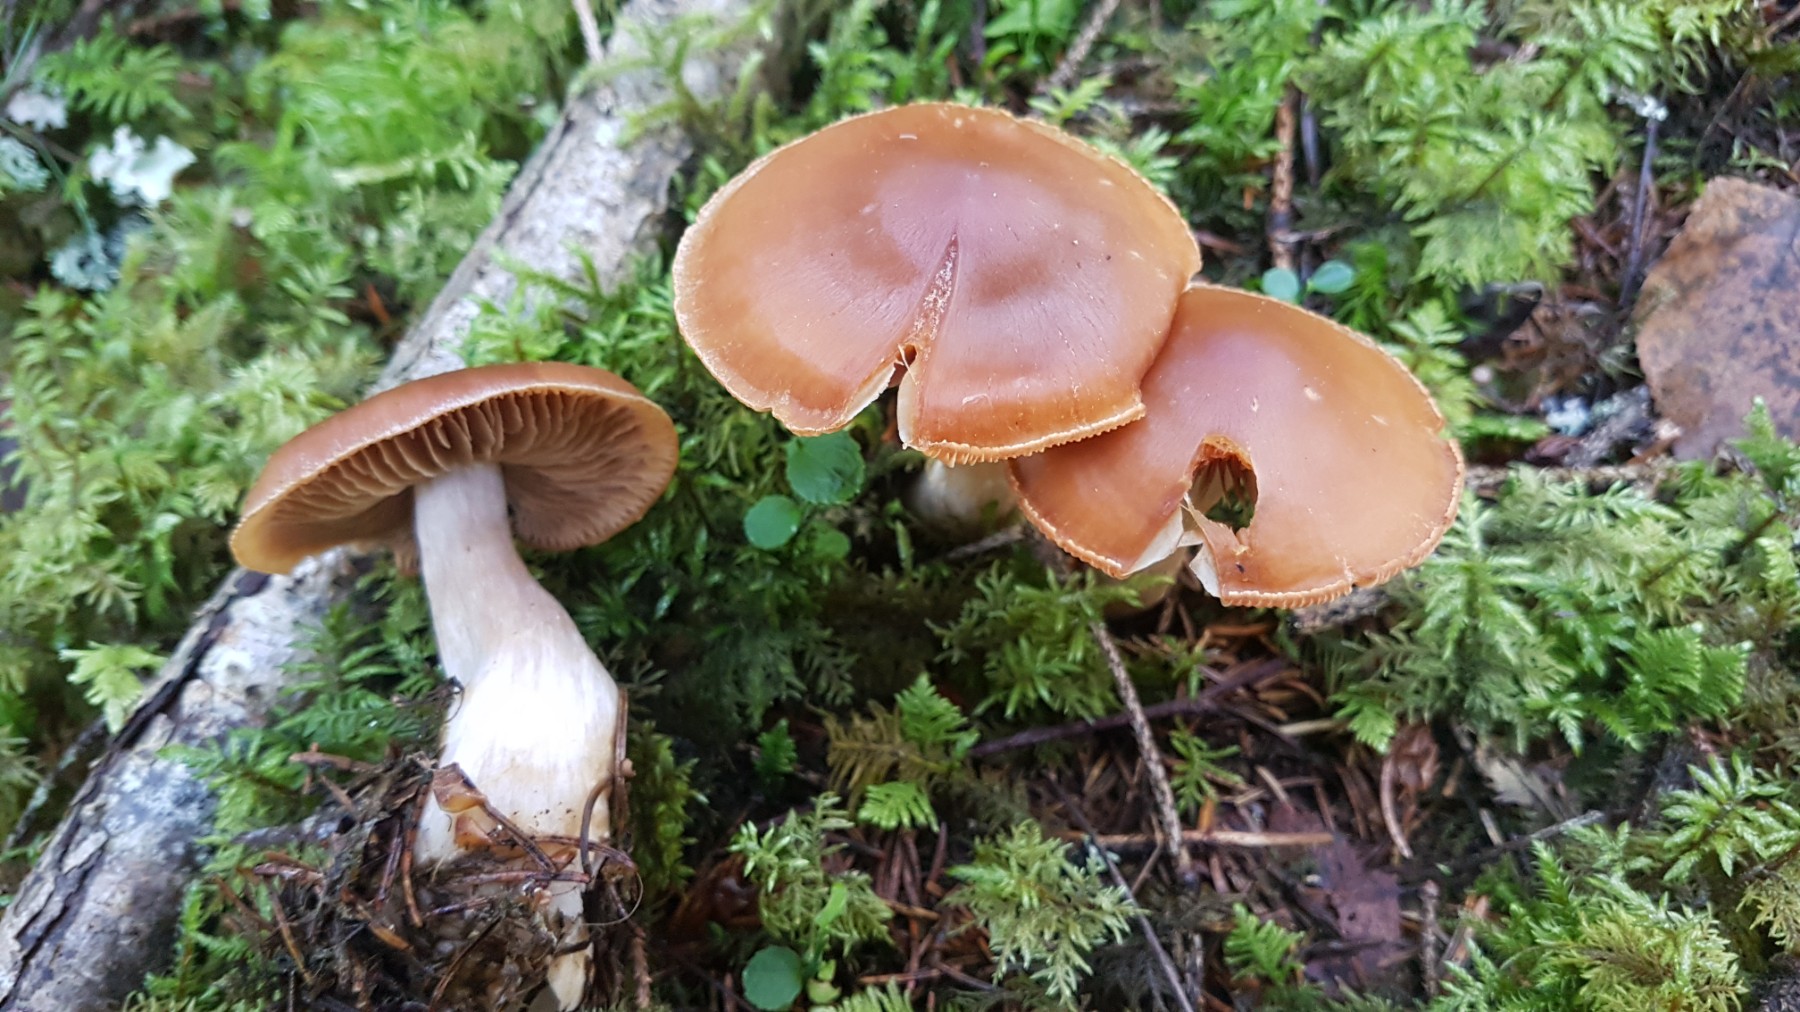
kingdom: Fungi
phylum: Basidiomycota
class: Agaricomycetes
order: Agaricales
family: Cortinariaceae
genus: Cortinarius
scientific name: Cortinarius armeniacus
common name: abrikos-slørhat
